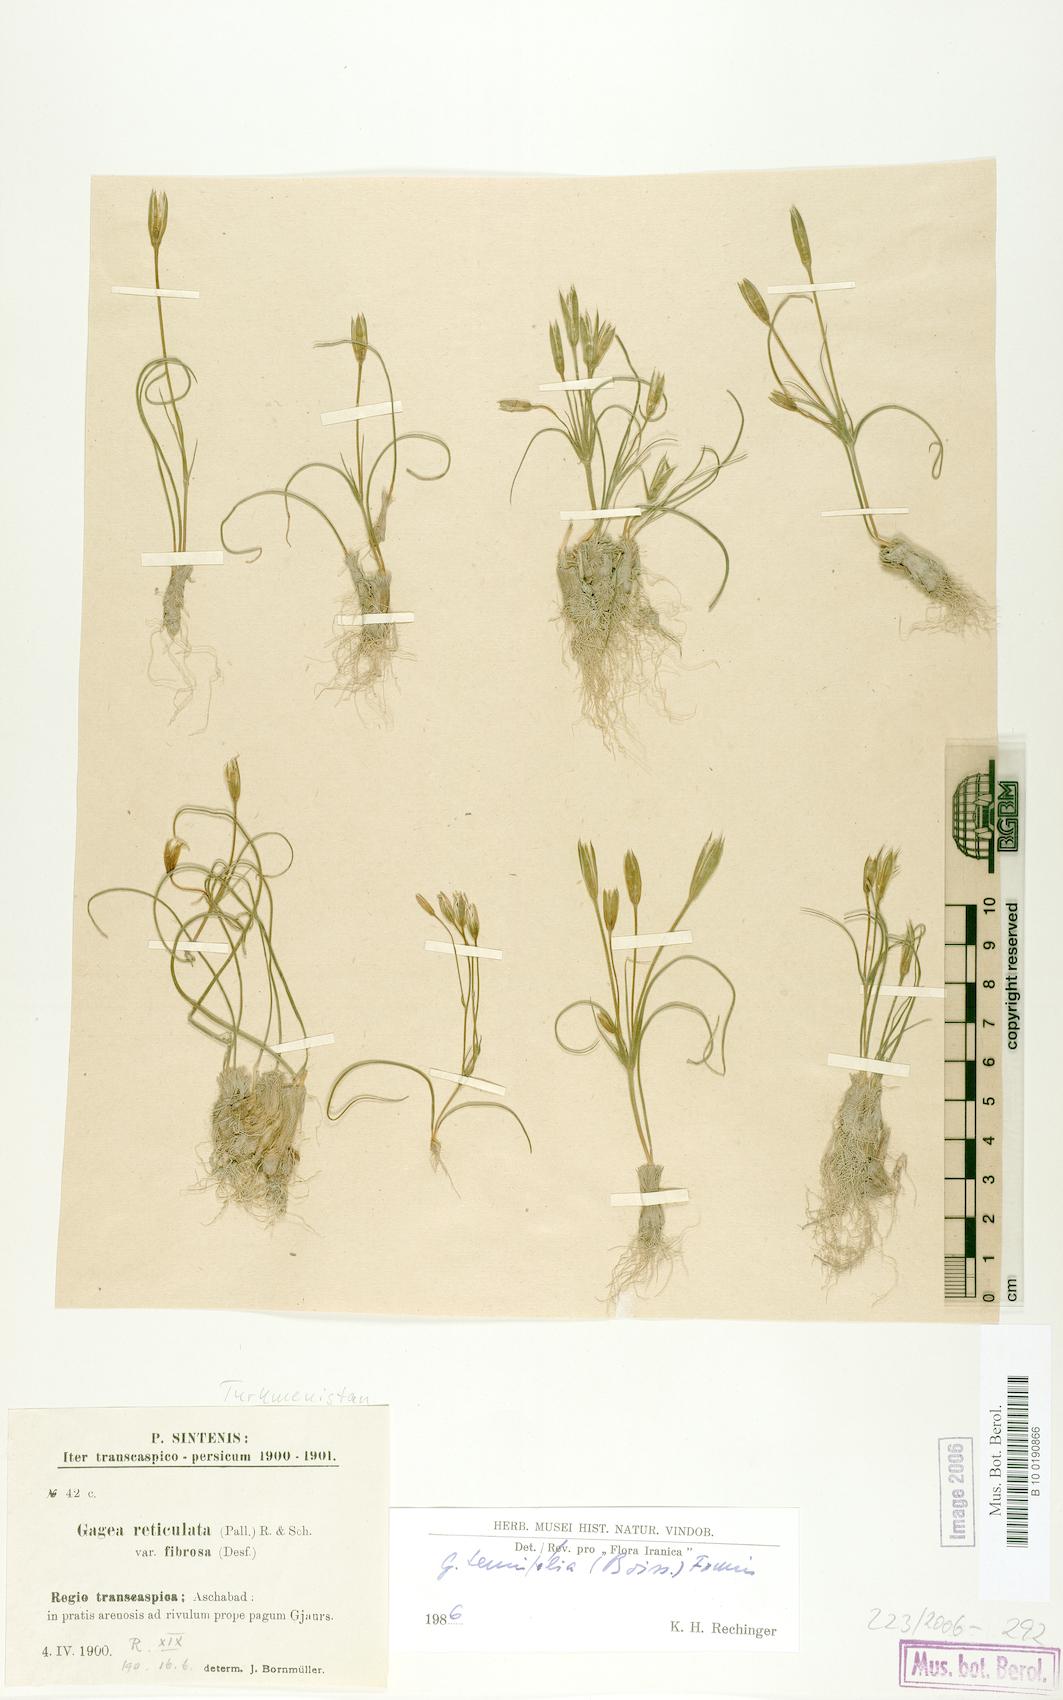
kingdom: Plantae
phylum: Tracheophyta
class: Liliopsida
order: Liliales
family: Liliaceae
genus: Gagea
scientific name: Gagea reticulata
